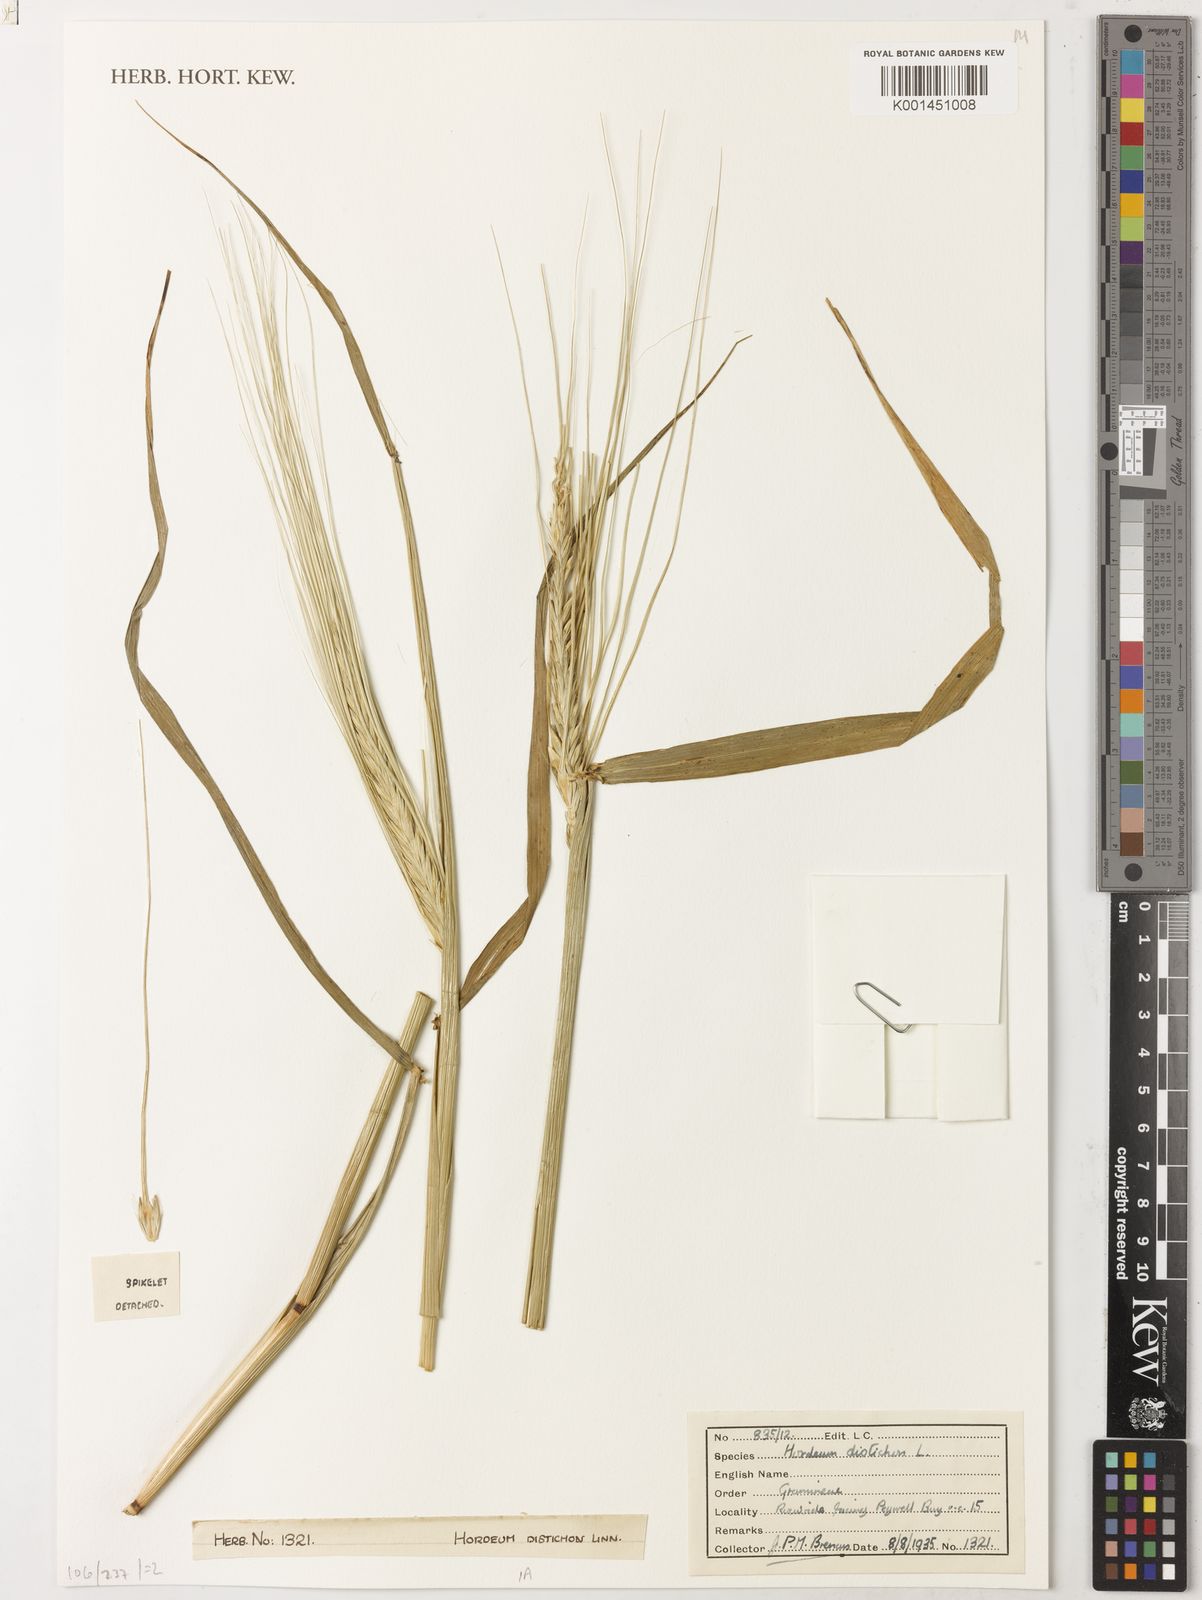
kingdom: Plantae
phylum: Tracheophyta
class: Liliopsida
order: Poales
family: Poaceae
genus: Hordeum
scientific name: Hordeum vulgare
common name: Common barley
